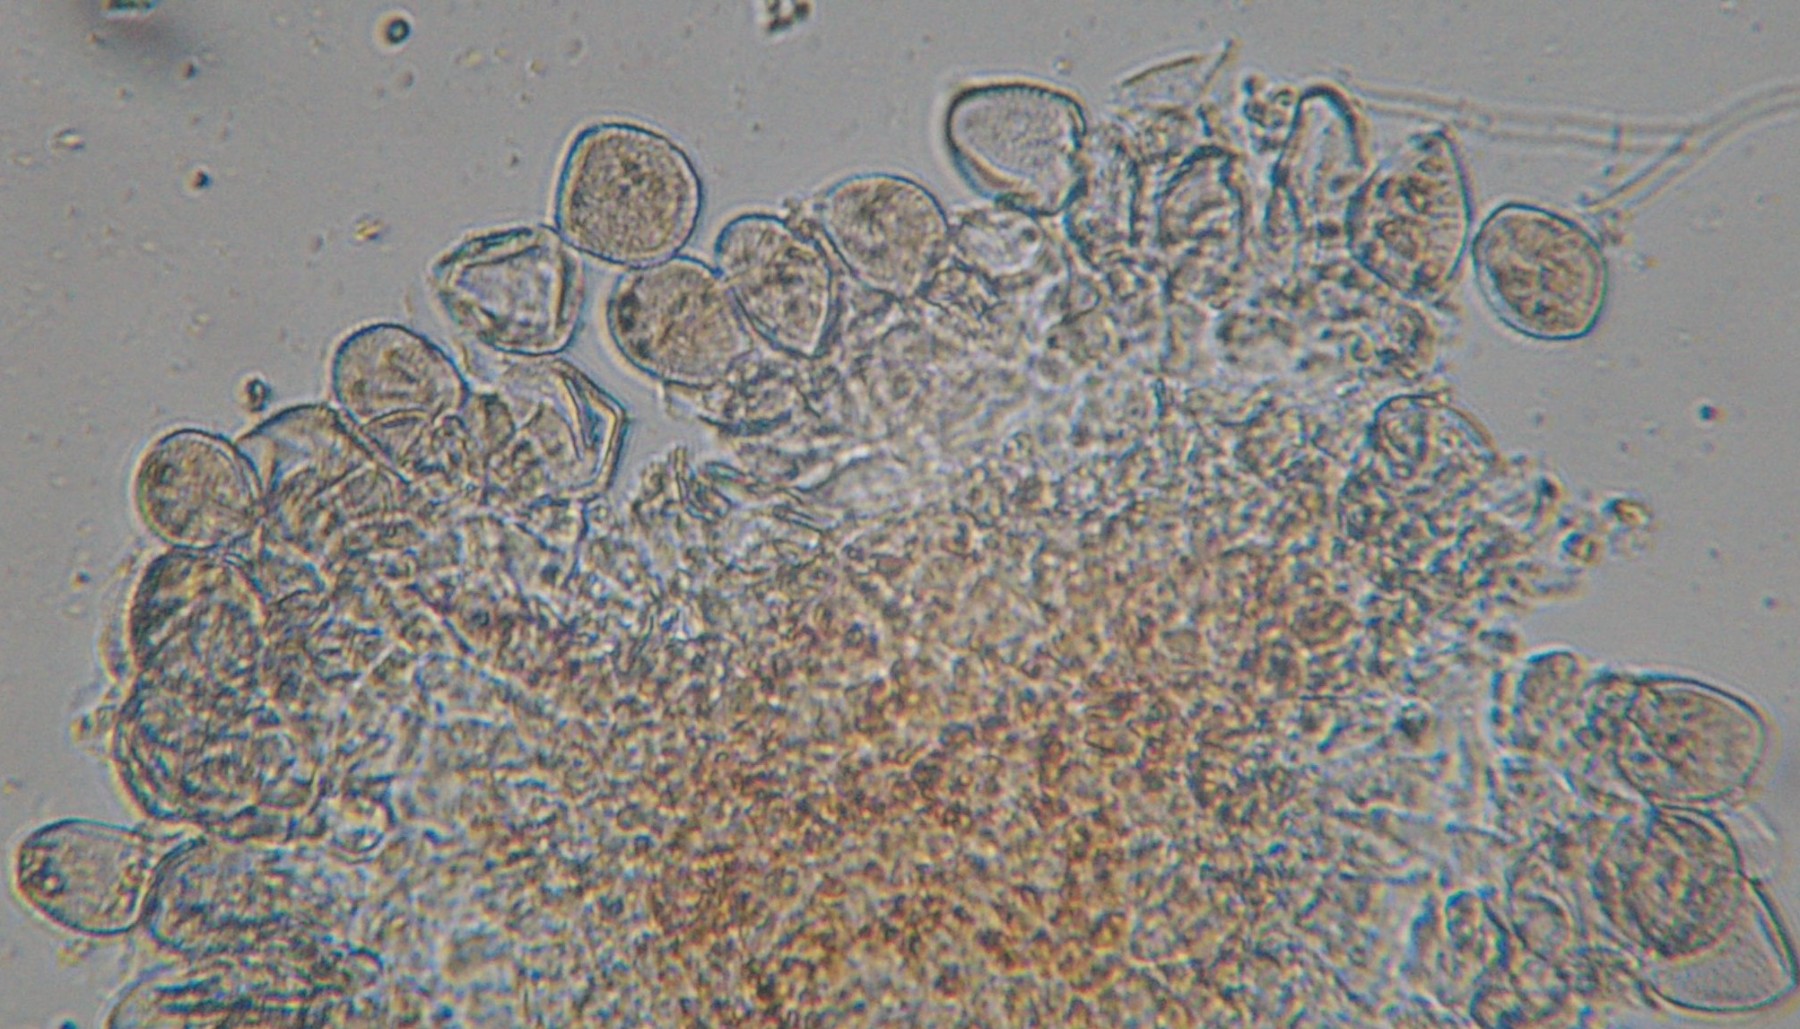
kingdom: Fungi
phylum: Basidiomycota
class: Pucciniomycetes
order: Pucciniales
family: Melampsoraceae
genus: Melampsora
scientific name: Melampsora galanthi-fragilis
